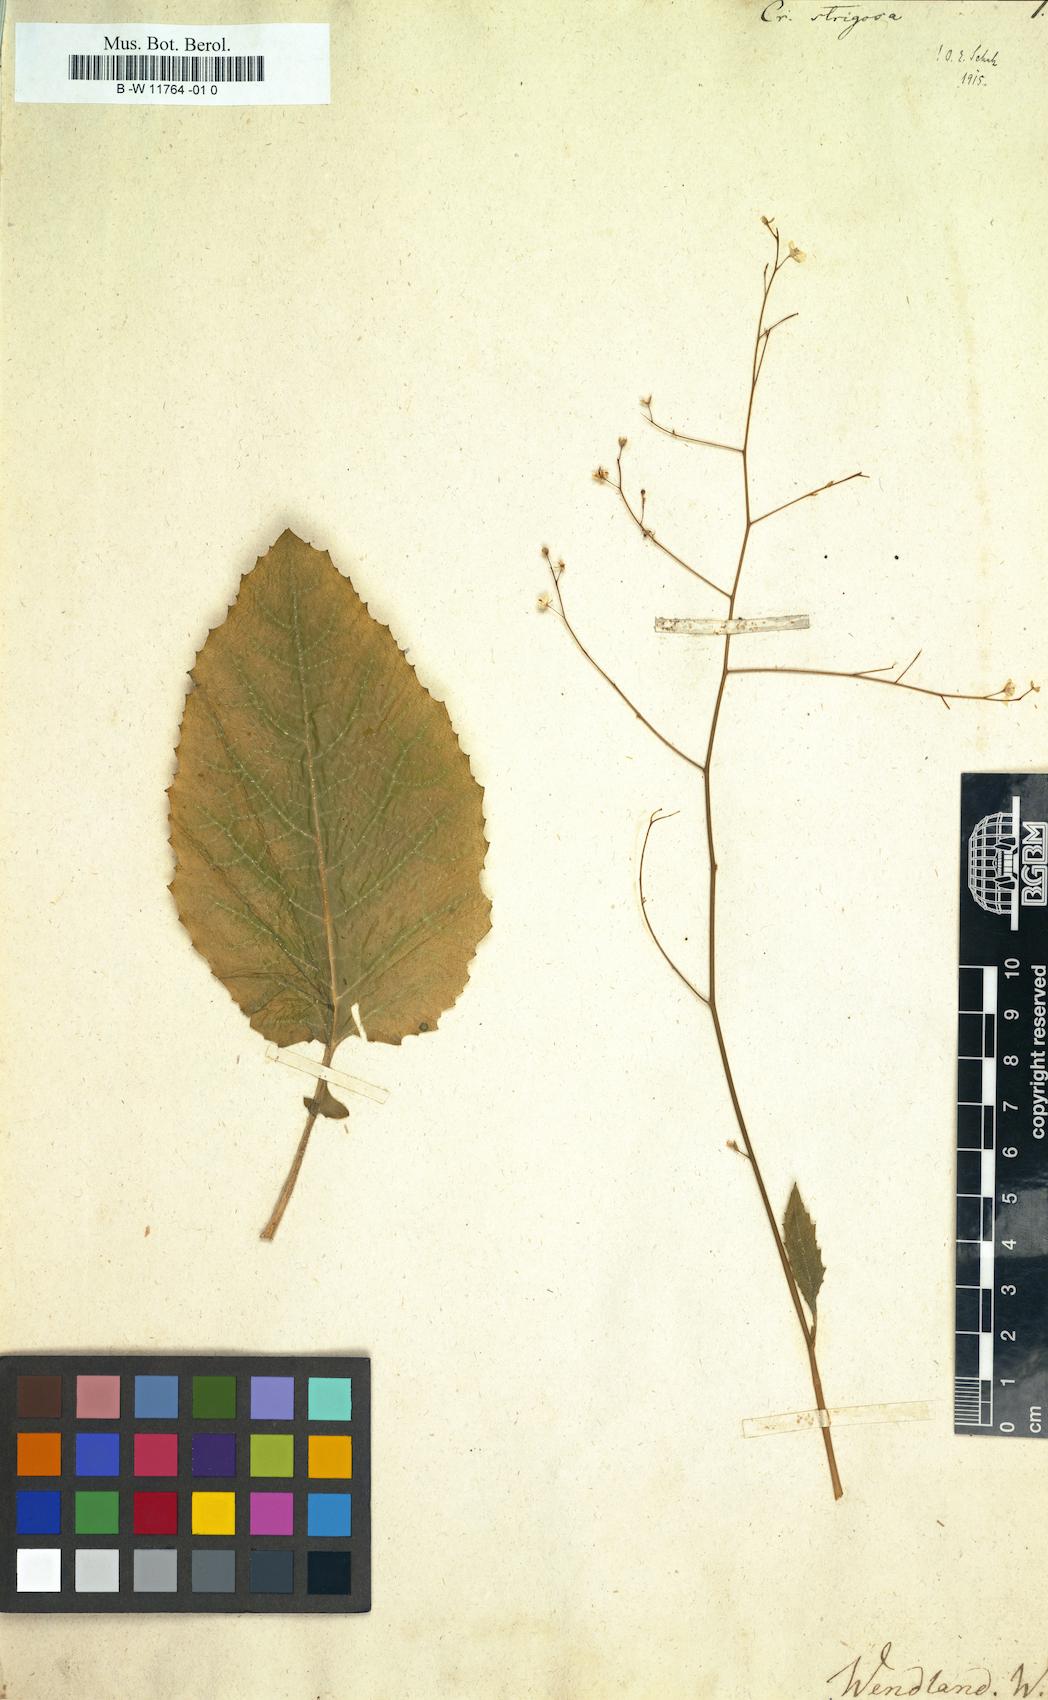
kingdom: Plantae
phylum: Tracheophyta
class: Magnoliopsida
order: Brassicales
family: Brassicaceae
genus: Crambe
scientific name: Crambe strigosa
